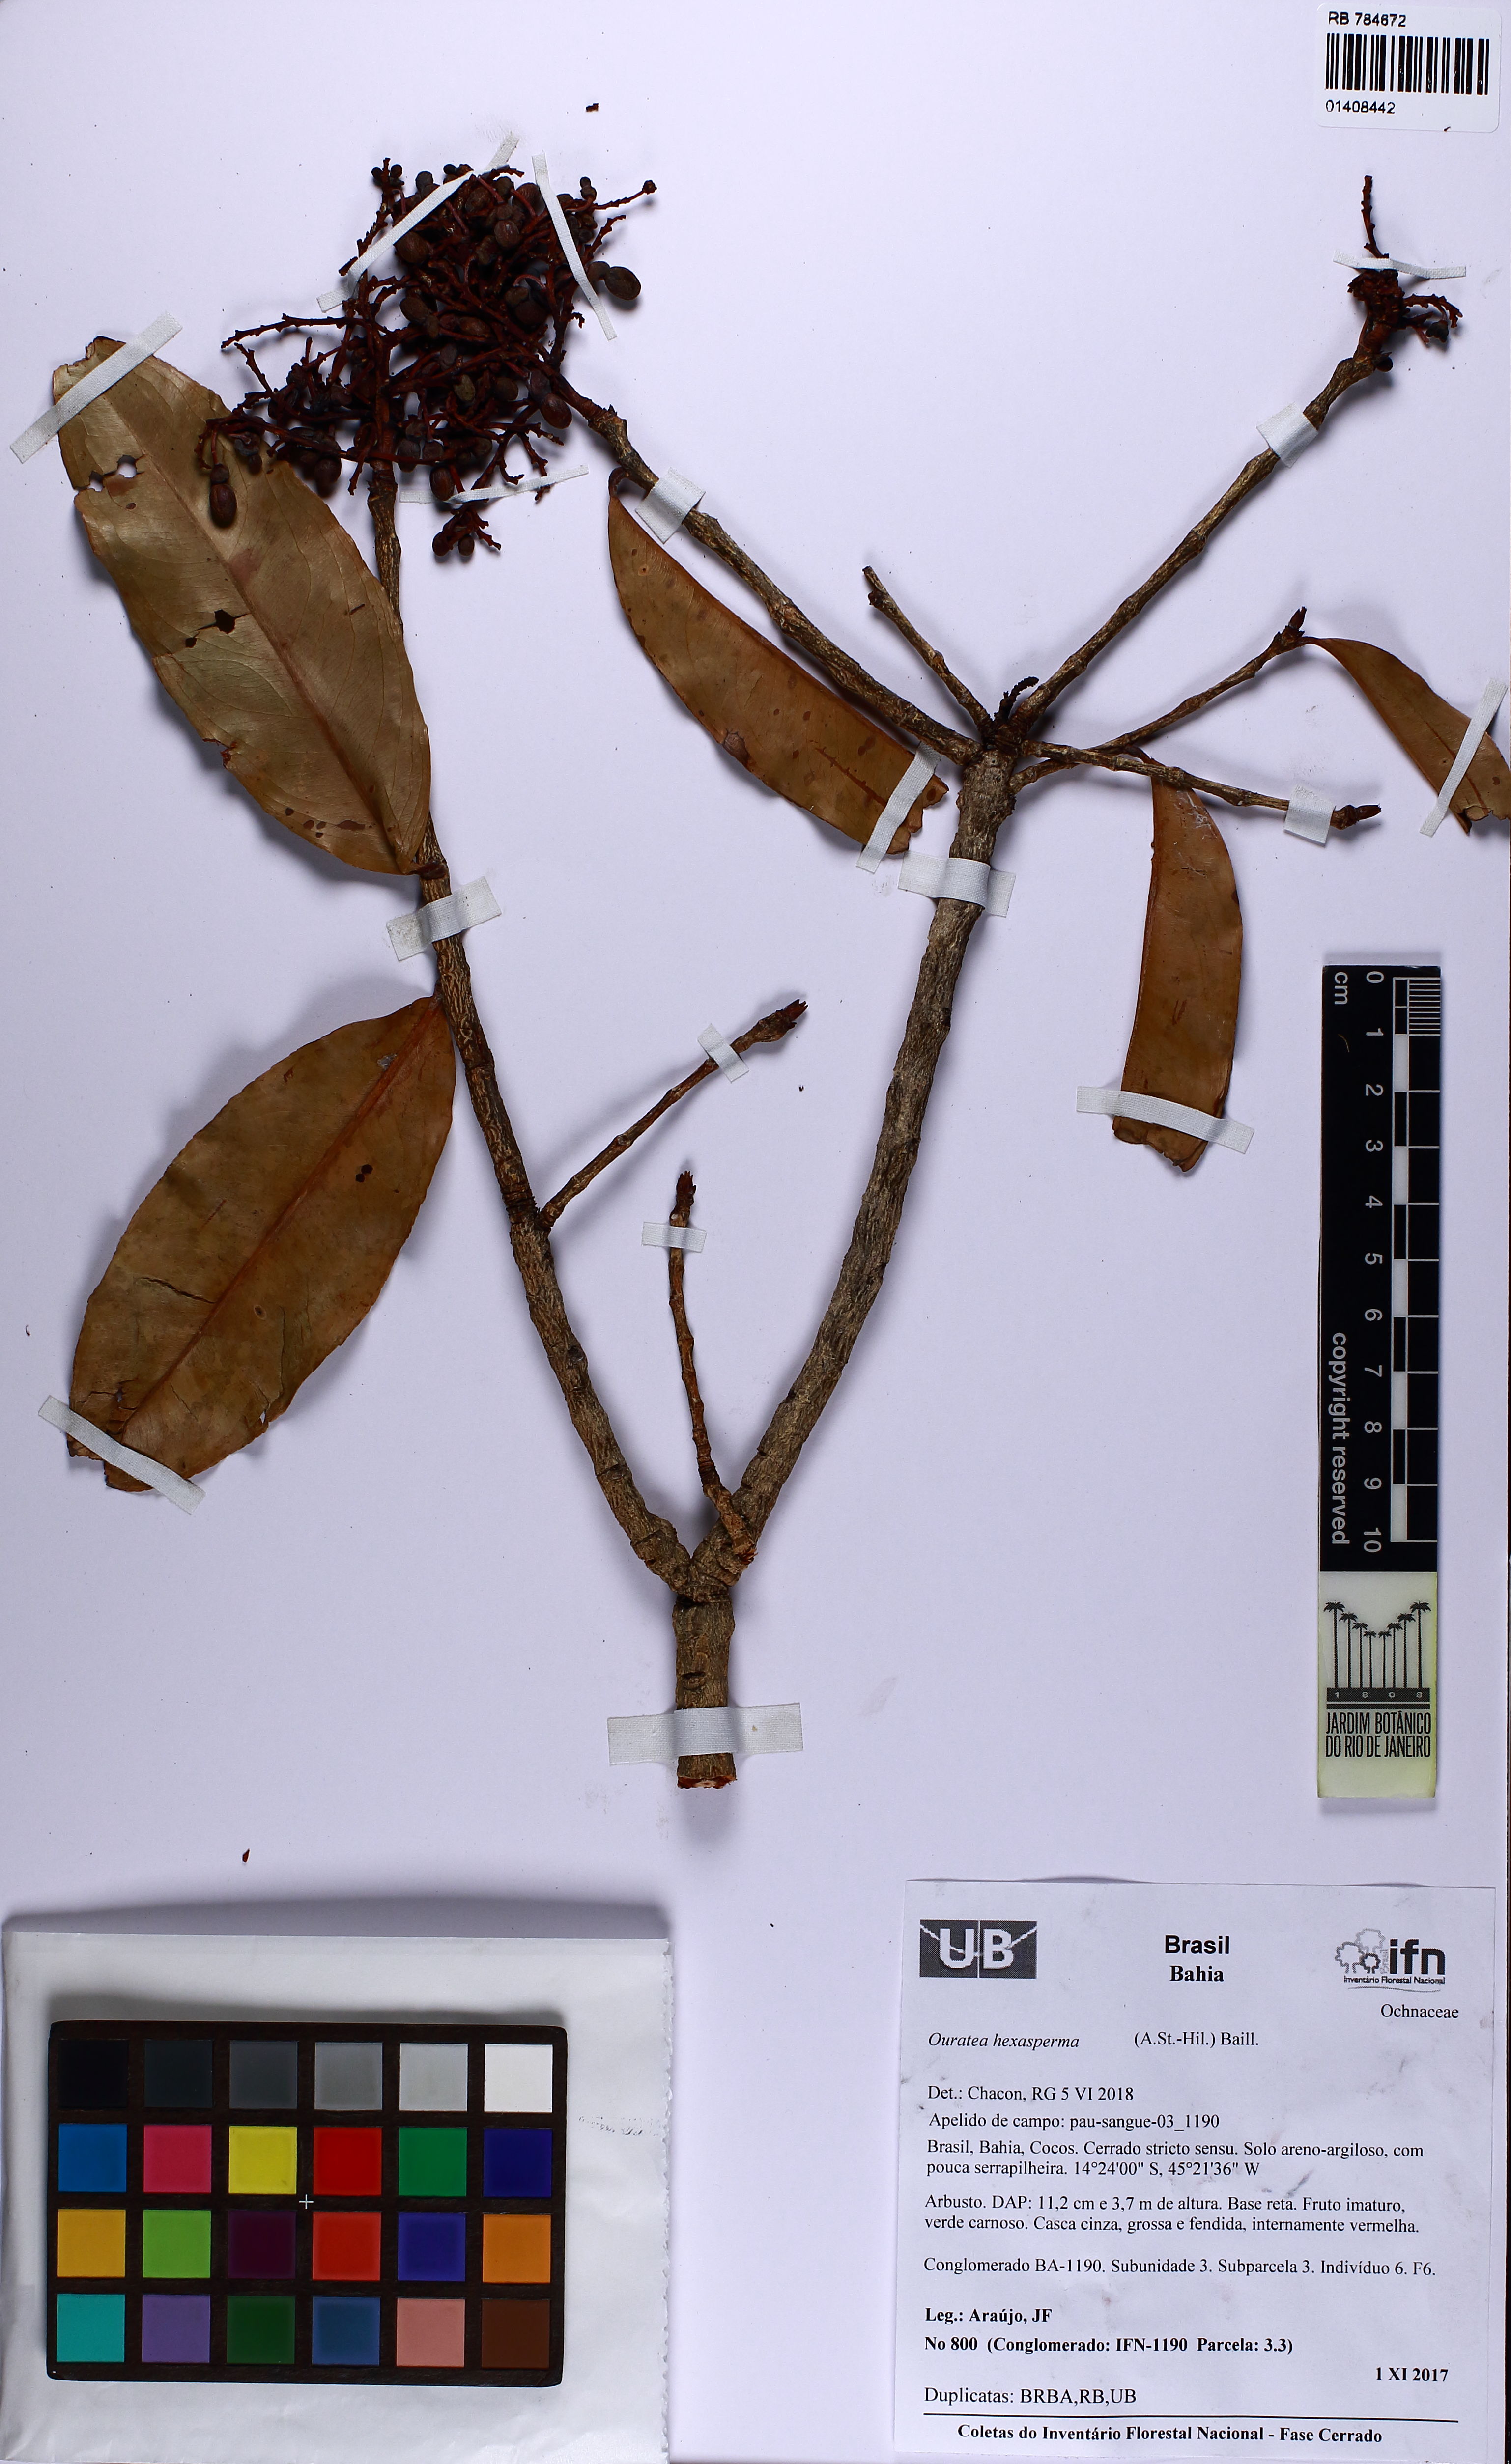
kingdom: Plantae
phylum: Tracheophyta
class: Magnoliopsida
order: Malpighiales
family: Ochnaceae
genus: Ouratea
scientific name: Ouratea hexasperma
